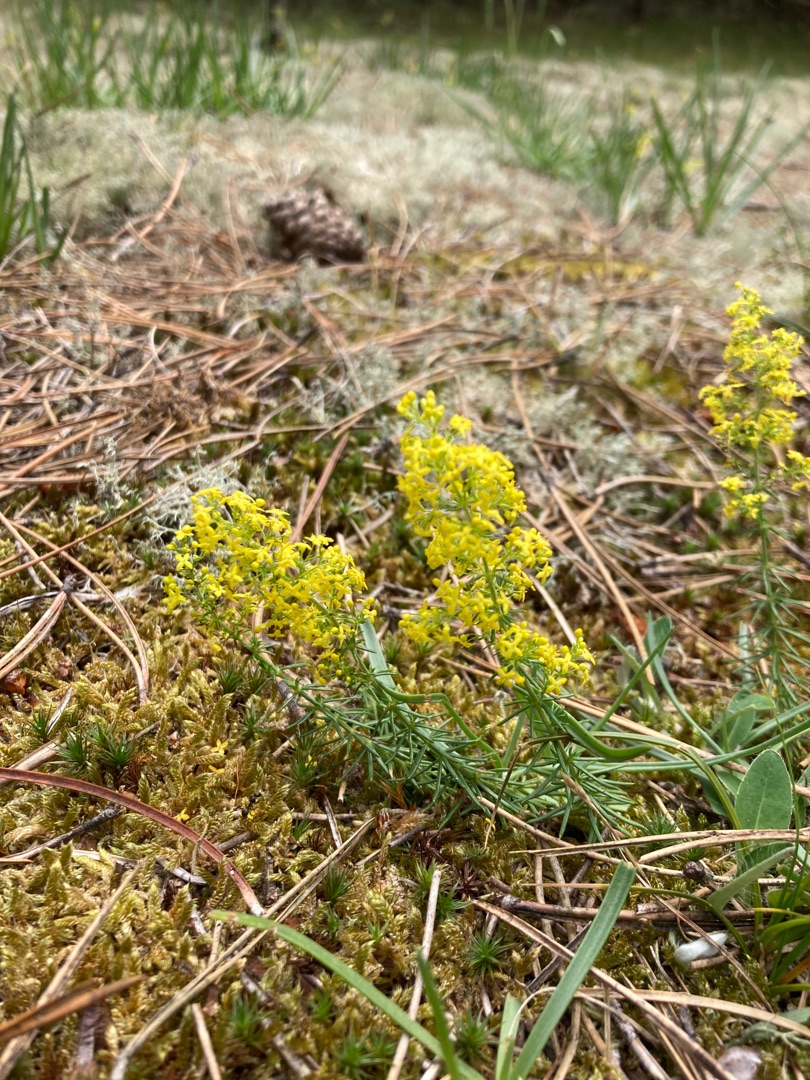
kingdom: Plantae
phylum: Tracheophyta
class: Magnoliopsida
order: Gentianales
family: Rubiaceae
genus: Galium
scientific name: Galium verum
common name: Gul snerre
